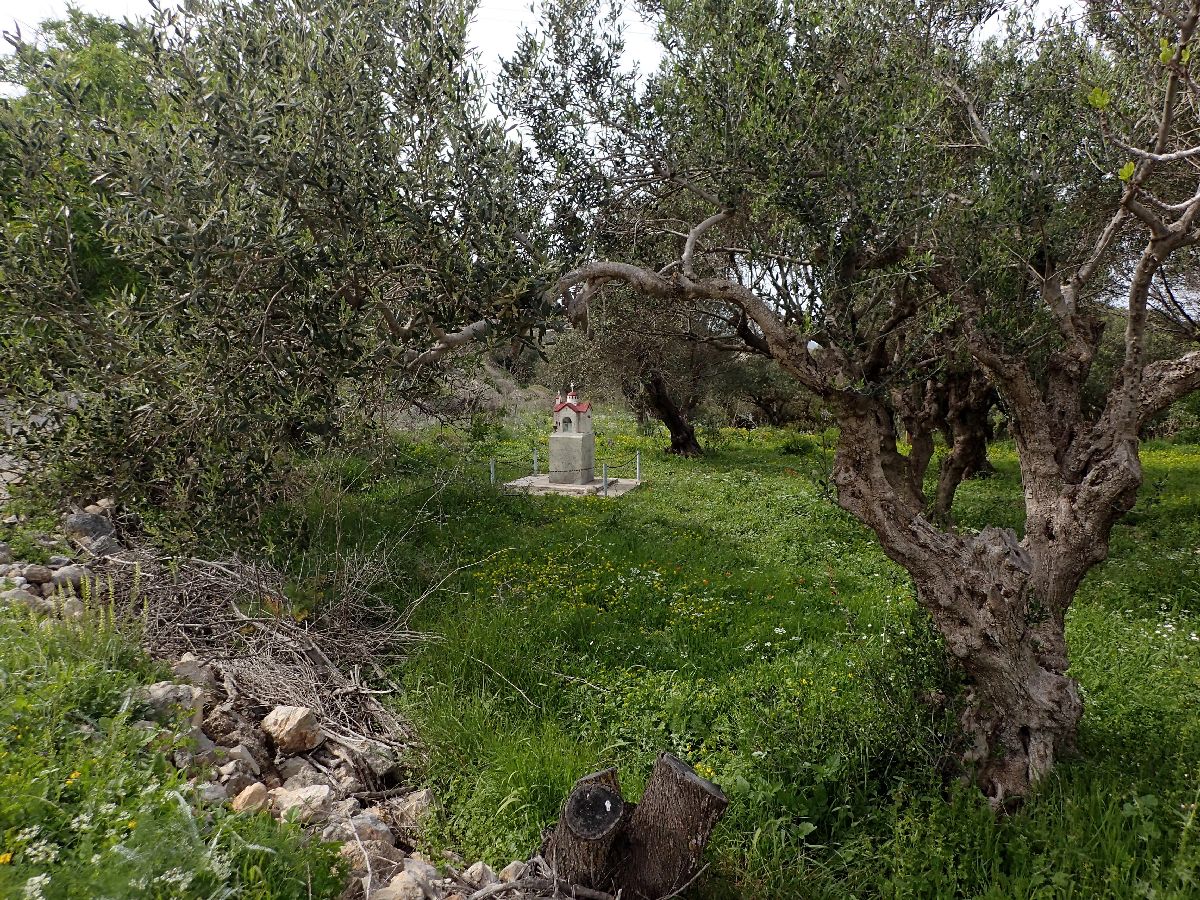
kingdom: Plantae
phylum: Tracheophyta
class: Magnoliopsida
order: Lamiales
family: Oleaceae
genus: Olea
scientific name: Olea europaea
